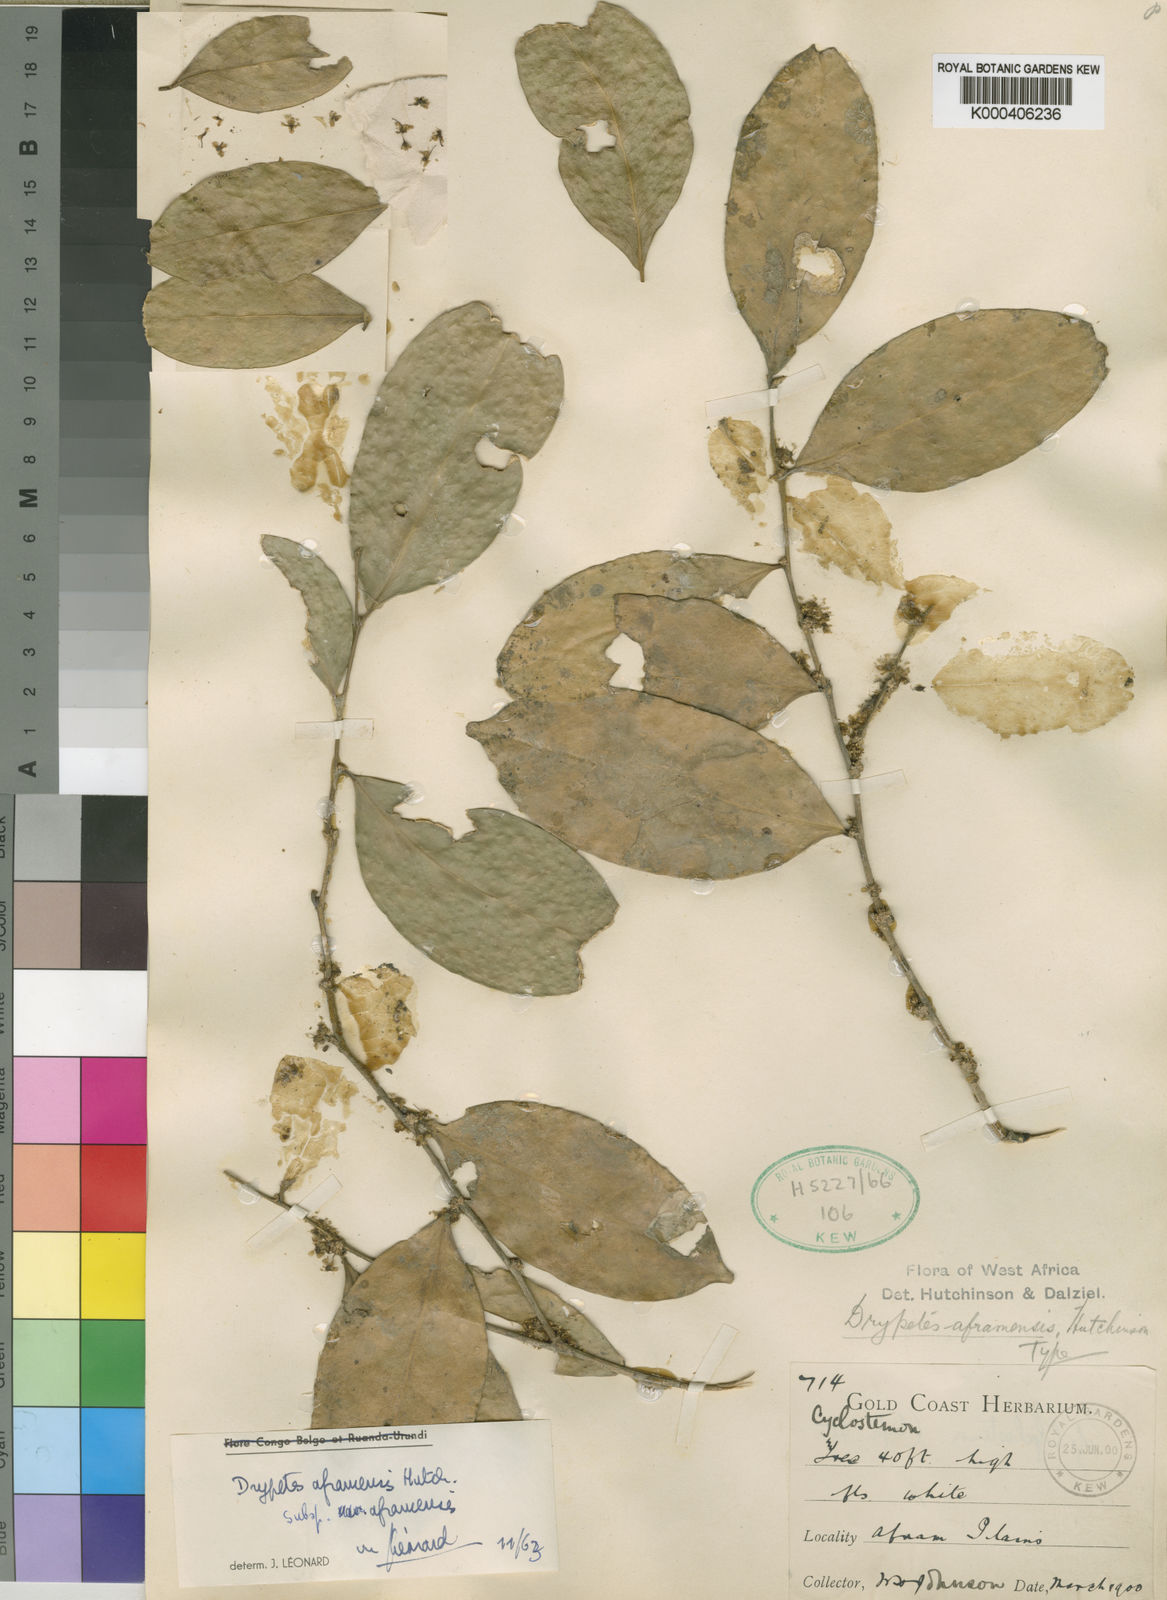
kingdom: Plantae
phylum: Tracheophyta
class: Magnoliopsida
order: Malpighiales
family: Putranjivaceae
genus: Drypetes
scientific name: Drypetes aframensis
